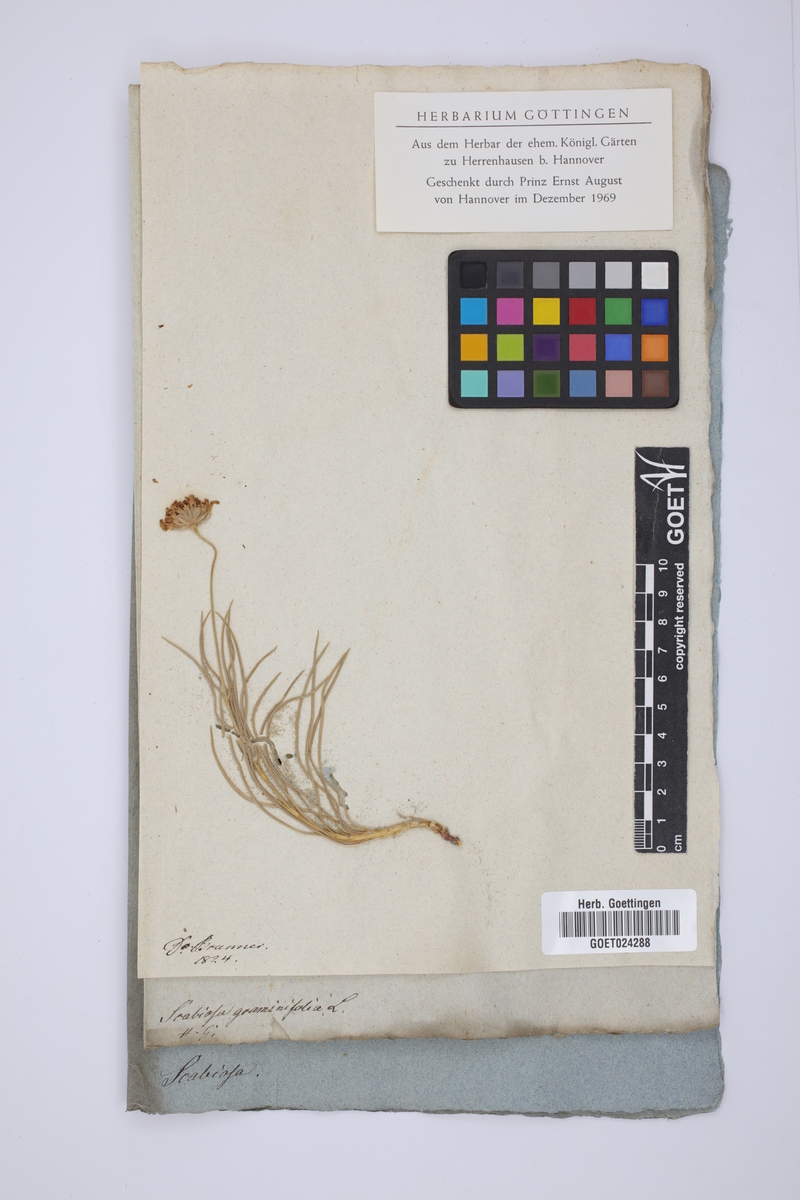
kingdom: Plantae
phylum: Tracheophyta
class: Magnoliopsida
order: Dipsacales
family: Caprifoliaceae
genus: Lomelosia
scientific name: Lomelosia graminifolia
